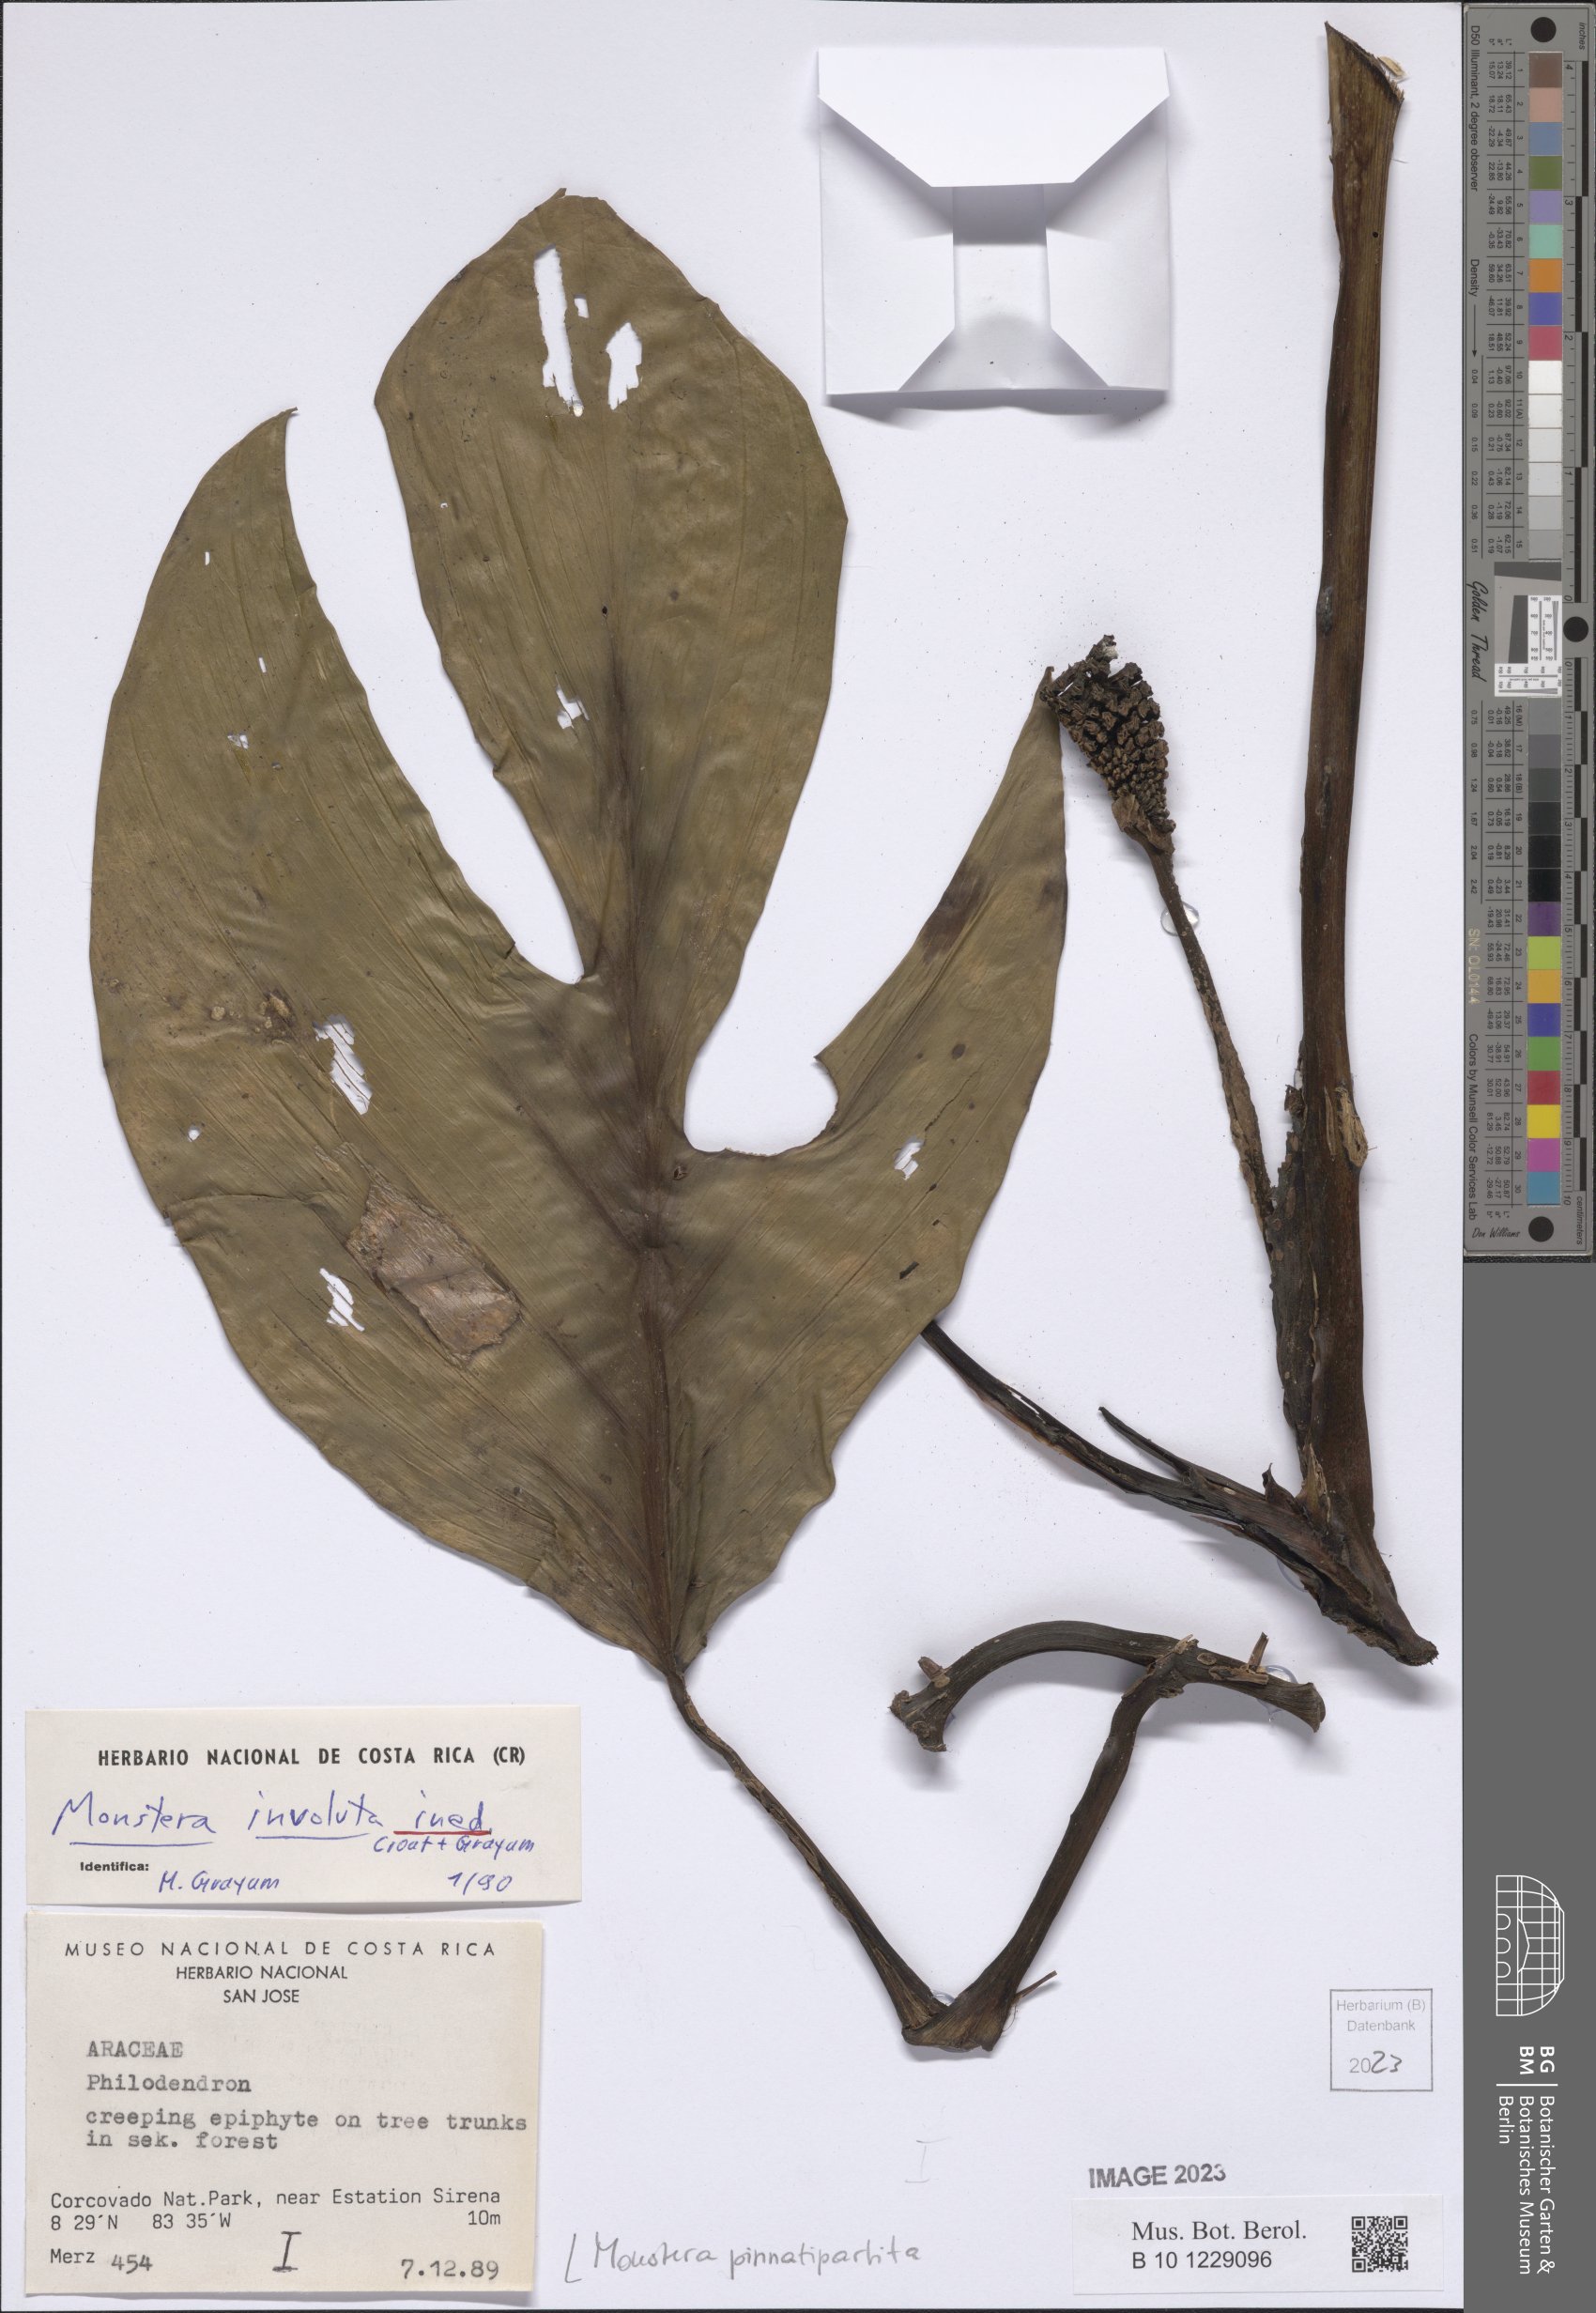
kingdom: Plantae
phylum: Tracheophyta
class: Liliopsida
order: Alismatales
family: Araceae
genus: Monstera
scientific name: Monstera pinnatipartita
